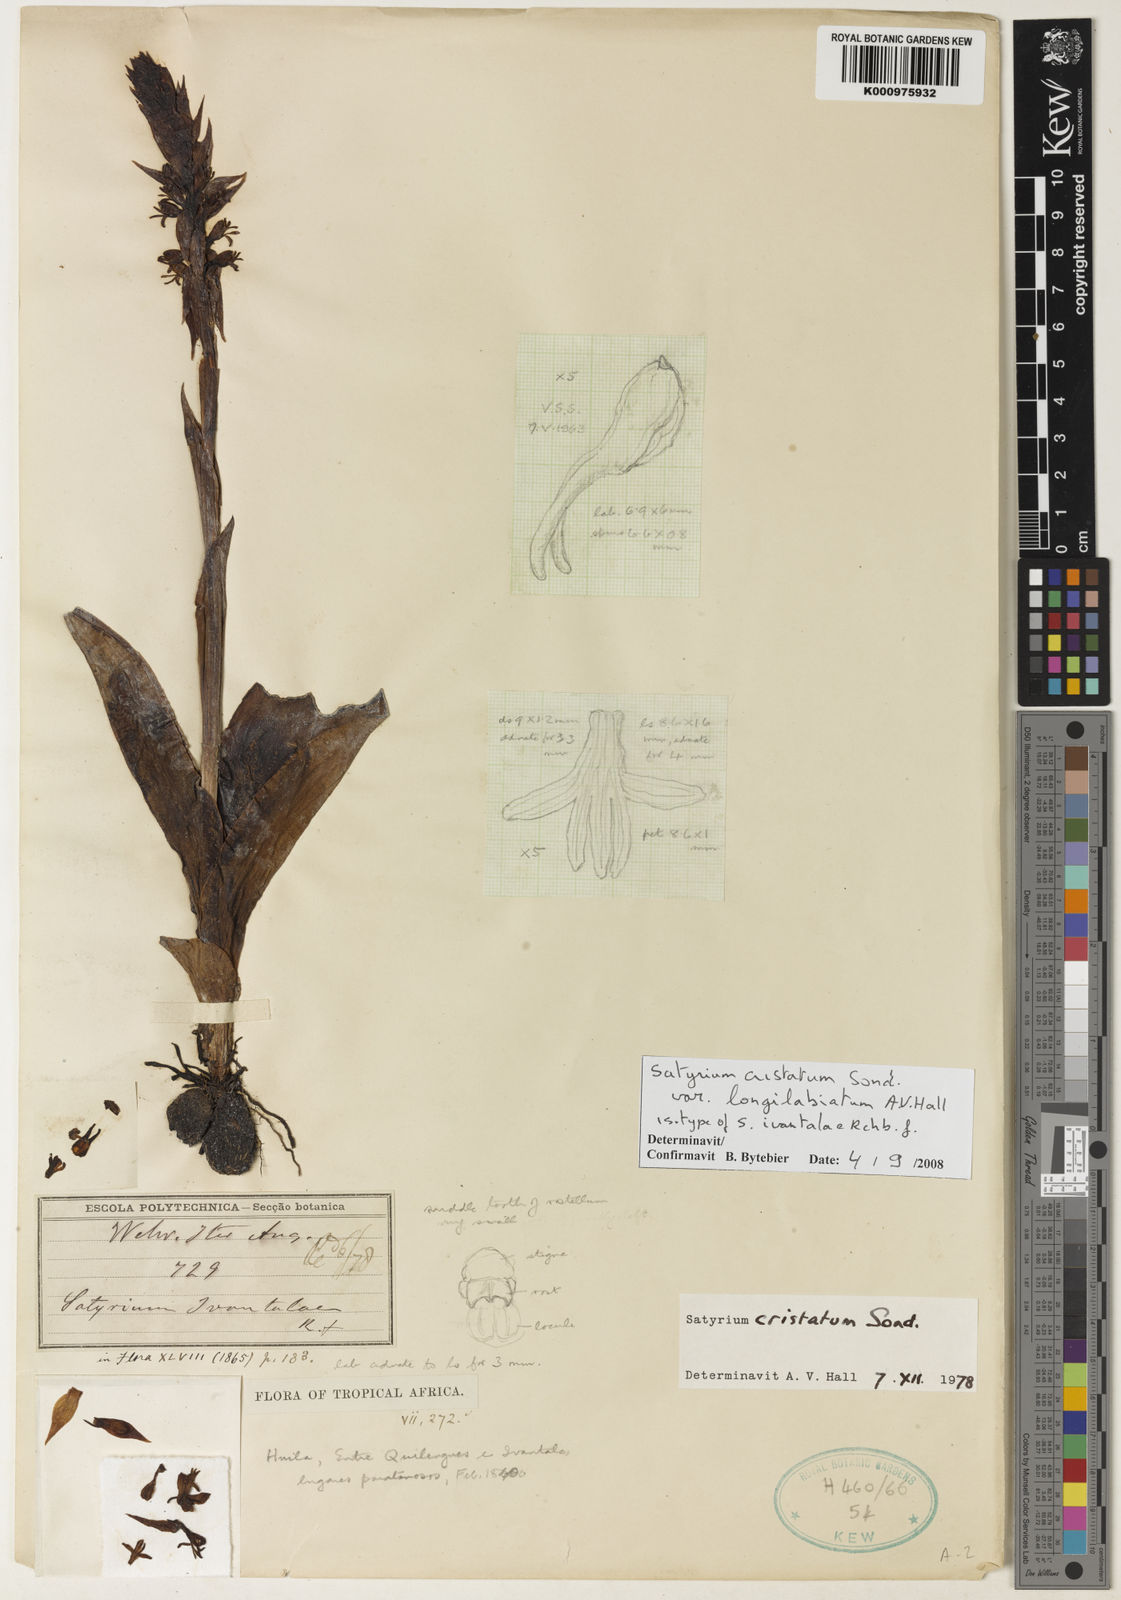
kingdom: Plantae
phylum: Tracheophyta
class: Liliopsida
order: Asparagales
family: Orchidaceae
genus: Satyrium
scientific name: Satyrium cristatum
